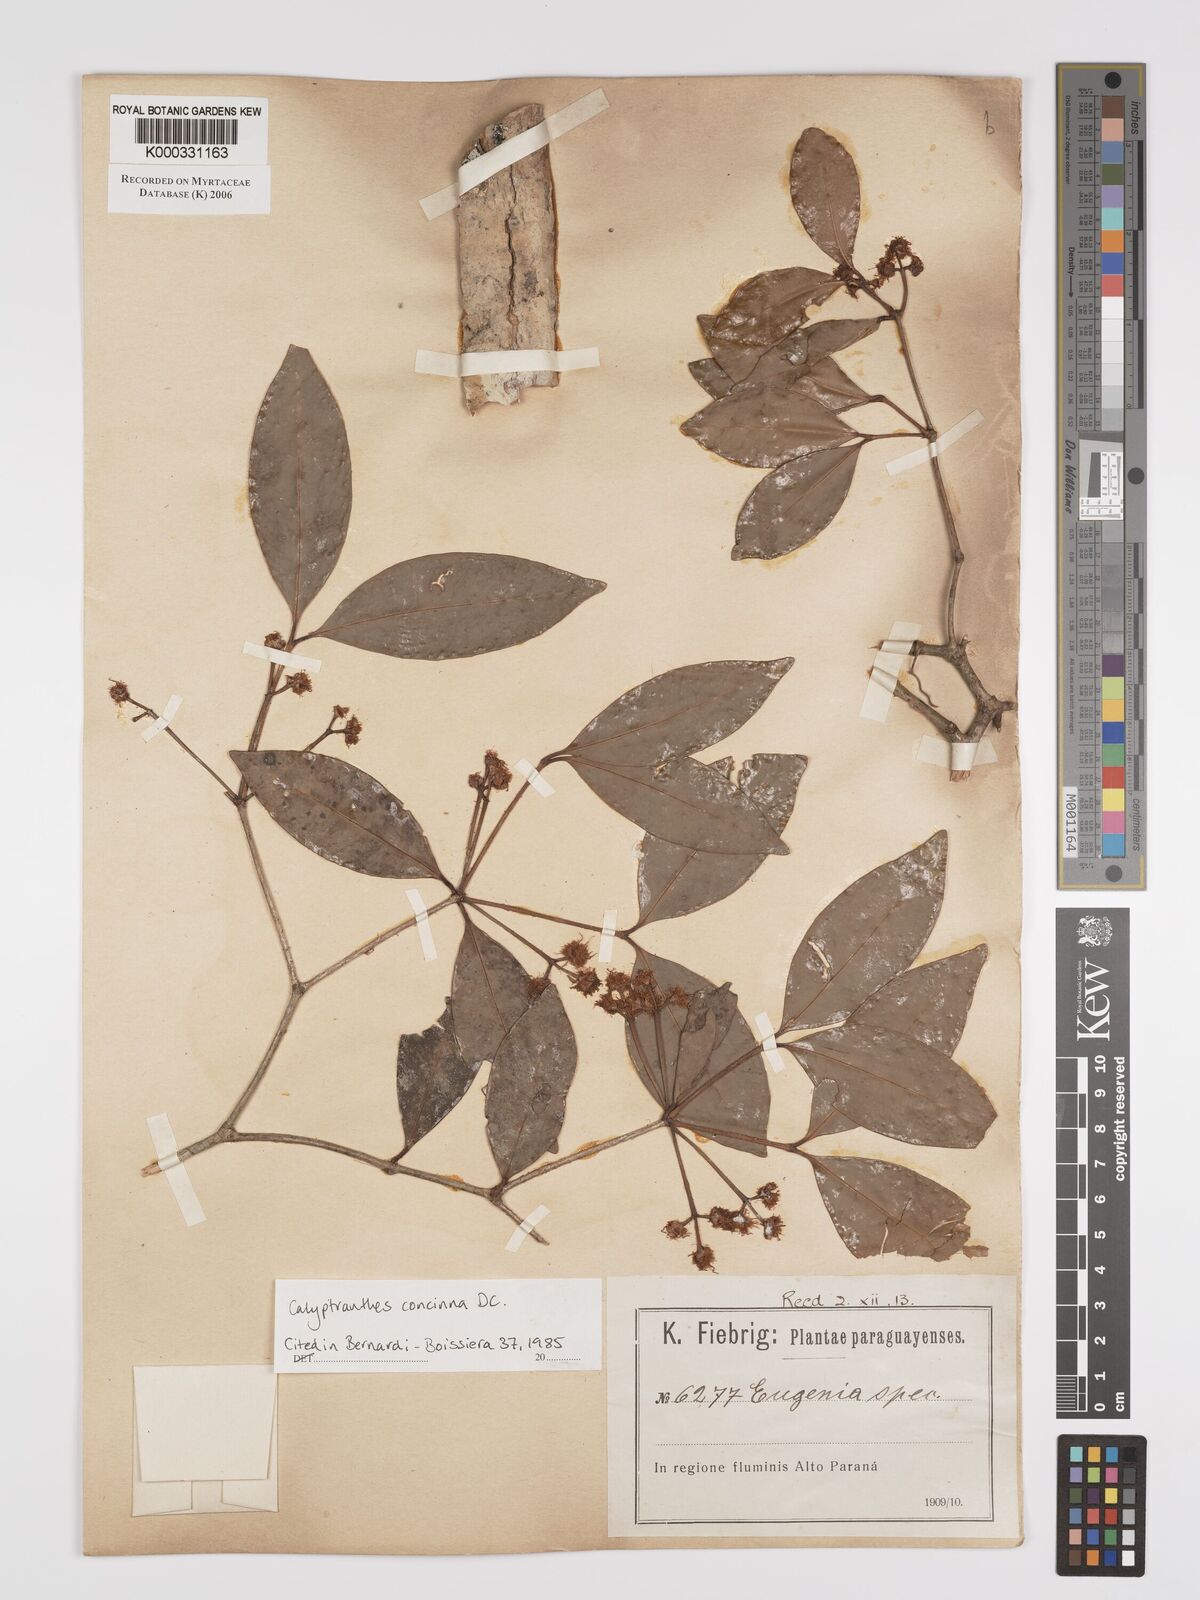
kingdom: Plantae
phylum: Tracheophyta
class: Magnoliopsida
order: Myrtales
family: Myrtaceae
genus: Myrcia
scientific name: Myrcia cruciflora
